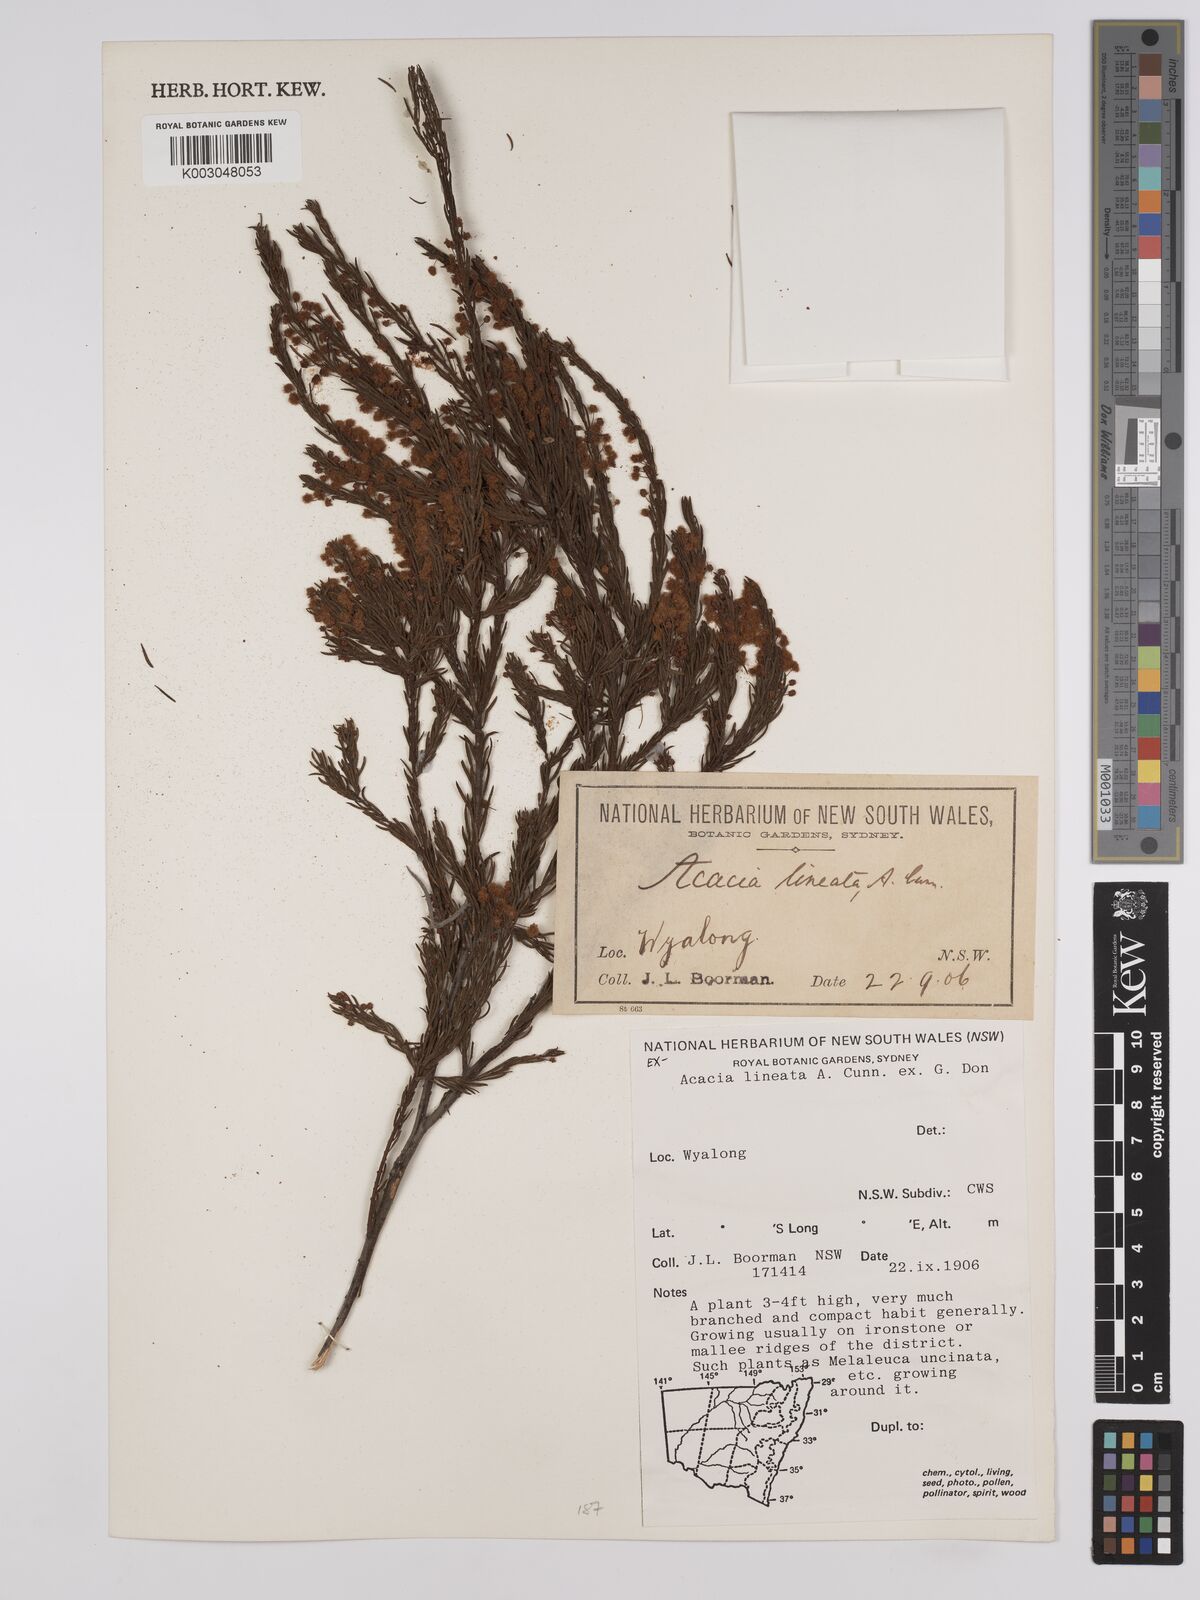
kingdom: Plantae
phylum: Tracheophyta
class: Magnoliopsida
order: Fabales
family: Fabaceae
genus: Acacia
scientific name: Acacia lineata
